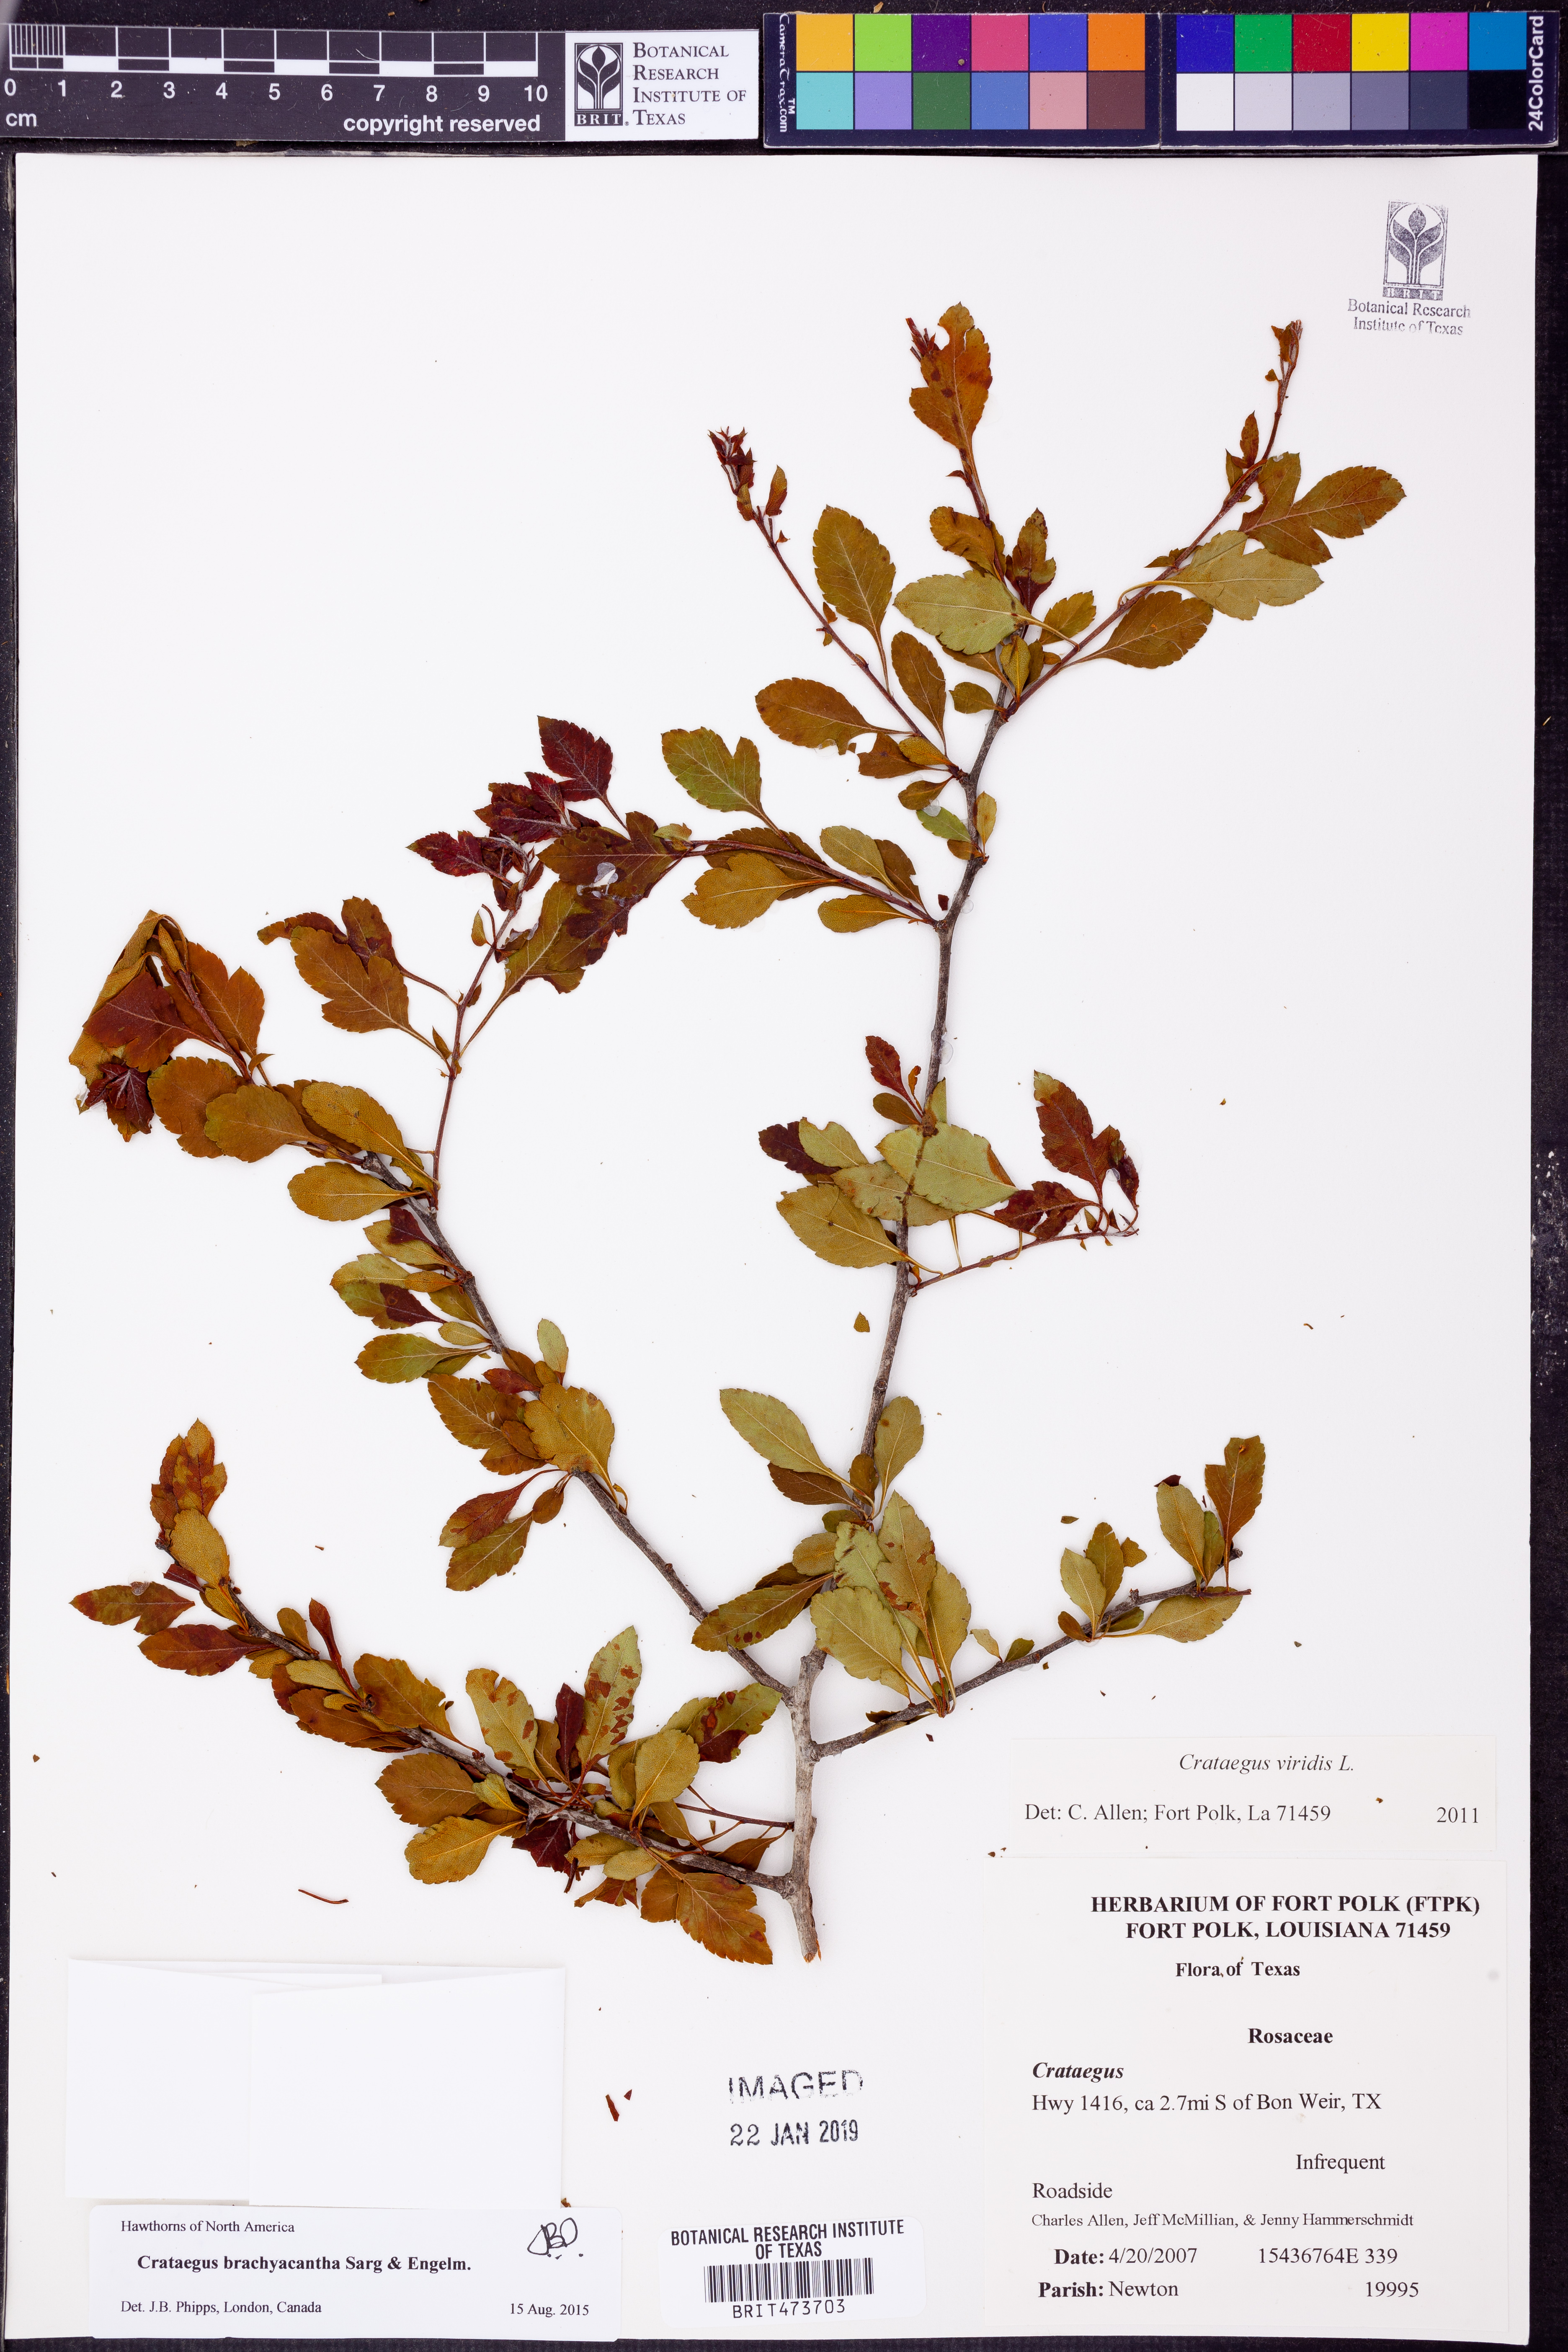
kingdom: Plantae
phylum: Tracheophyta
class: Magnoliopsida
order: Rosales
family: Rosaceae
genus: Crataegus
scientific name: Crataegus brachyacantha
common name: Blueberry-hawthorn
